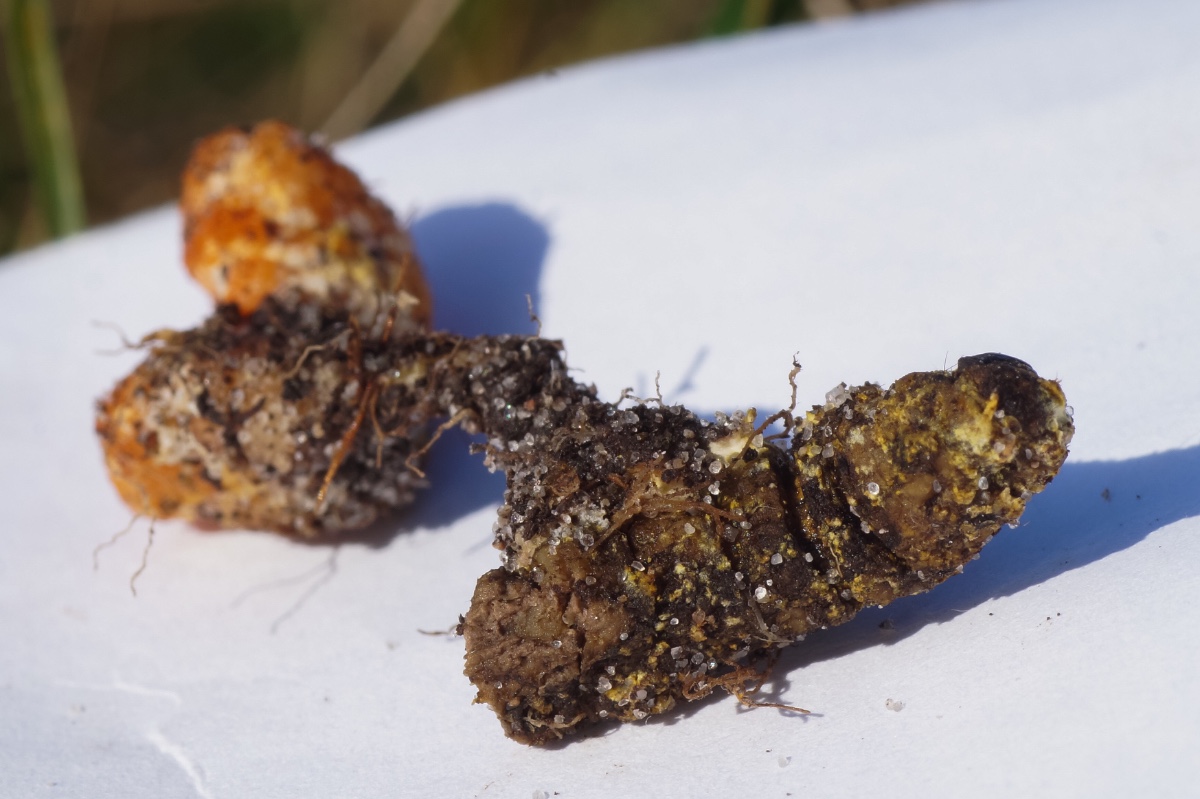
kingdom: Fungi
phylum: Ascomycota
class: Sordariomycetes
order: Hypocreales
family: Cordycipitaceae
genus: Cordyceps
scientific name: Cordyceps militaris
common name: puppe-snyltekølle
